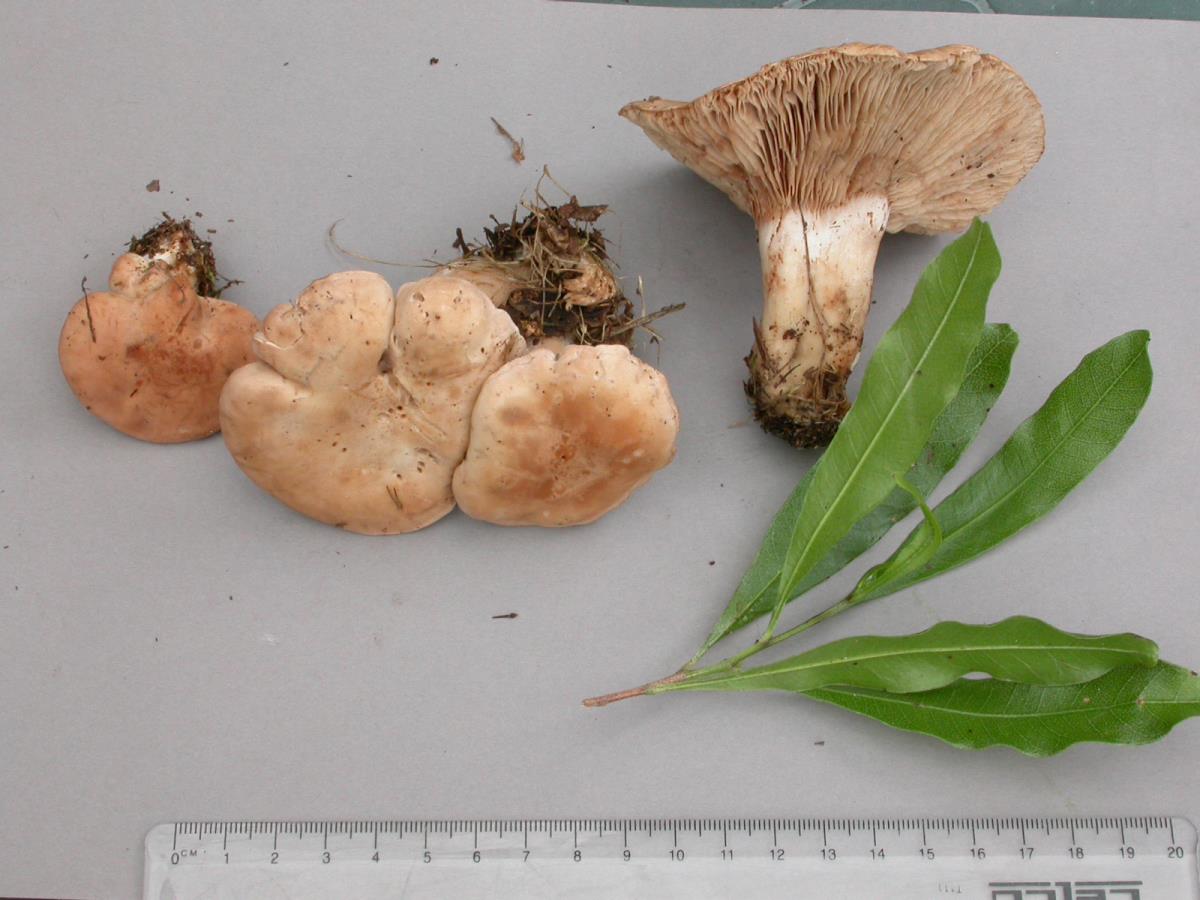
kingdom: Fungi
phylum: Basidiomycota
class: Agaricomycetes
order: Agaricales
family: Entolomataceae
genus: Clitopilus
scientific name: Clitopilus piperitus
